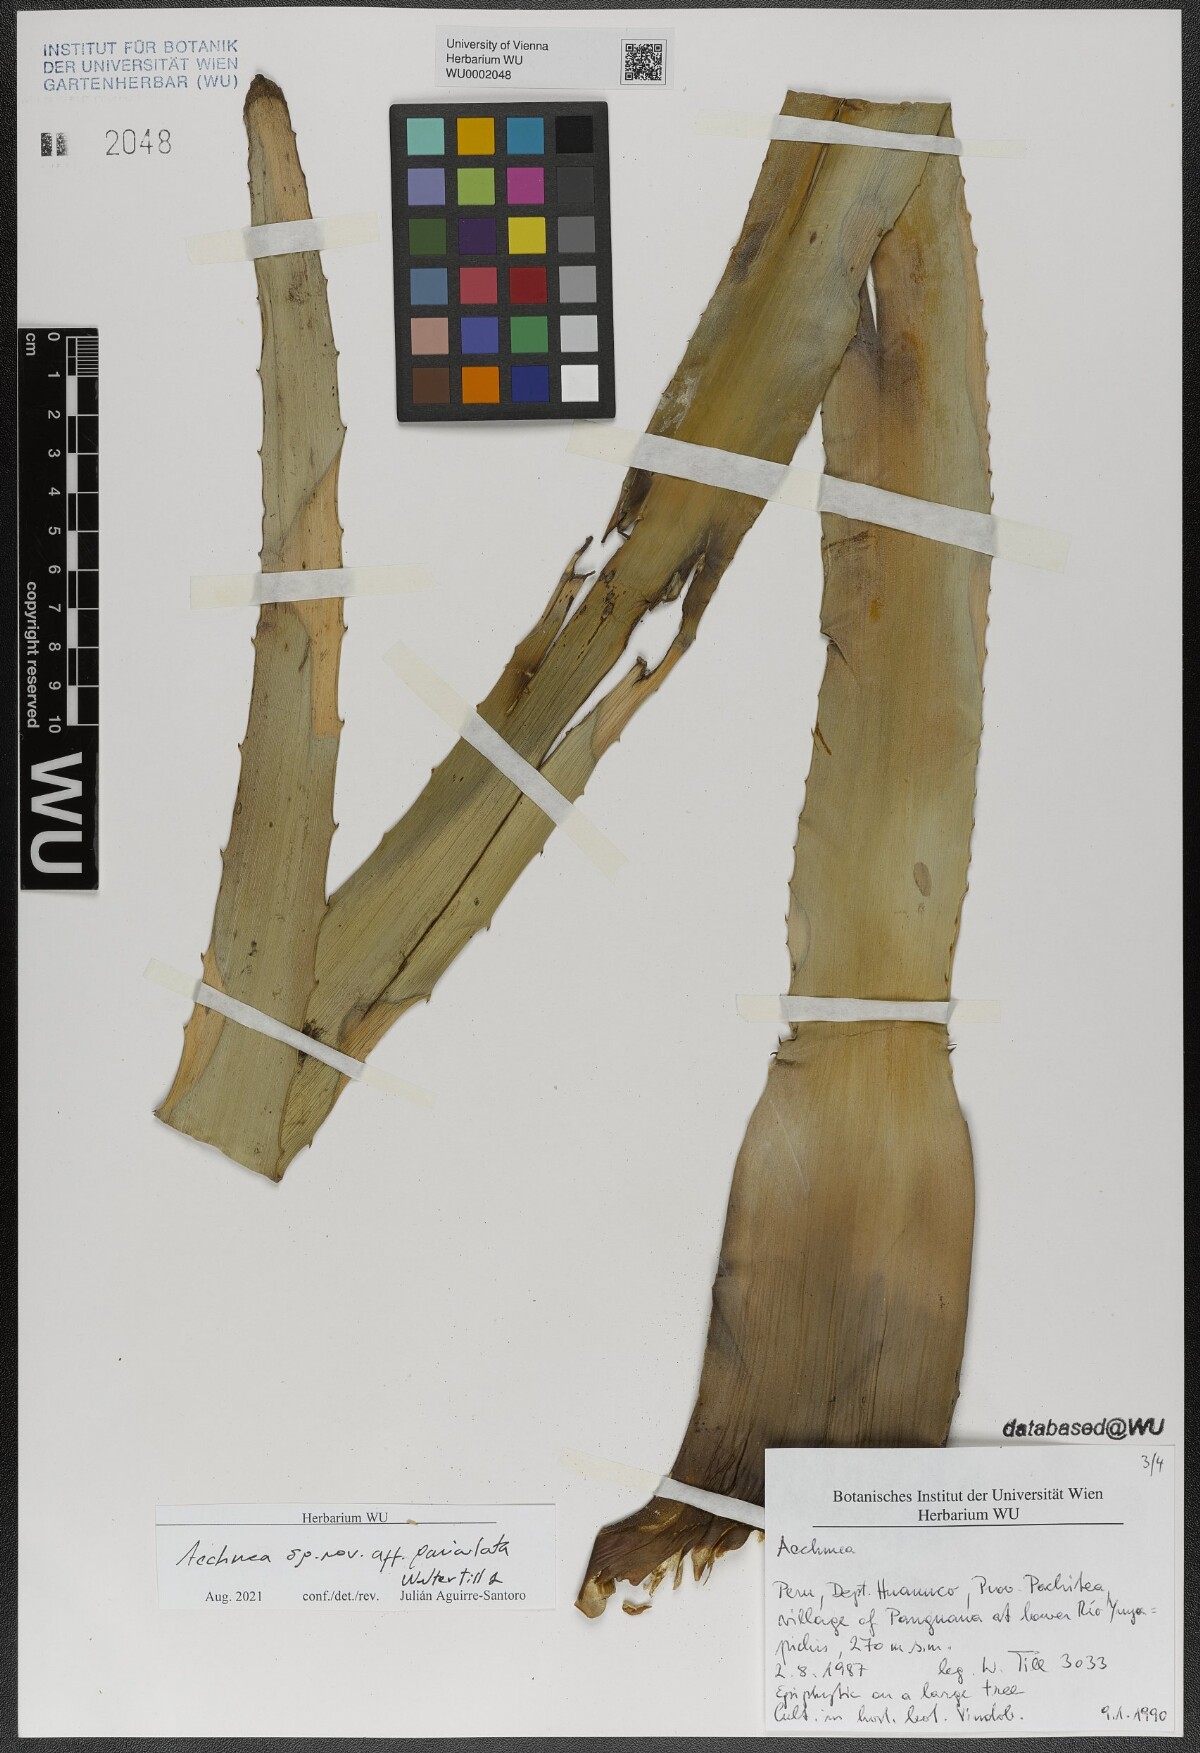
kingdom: Plantae
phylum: Tracheophyta
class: Liliopsida
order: Poales
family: Bromeliaceae
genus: Aechmea
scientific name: Aechmea
